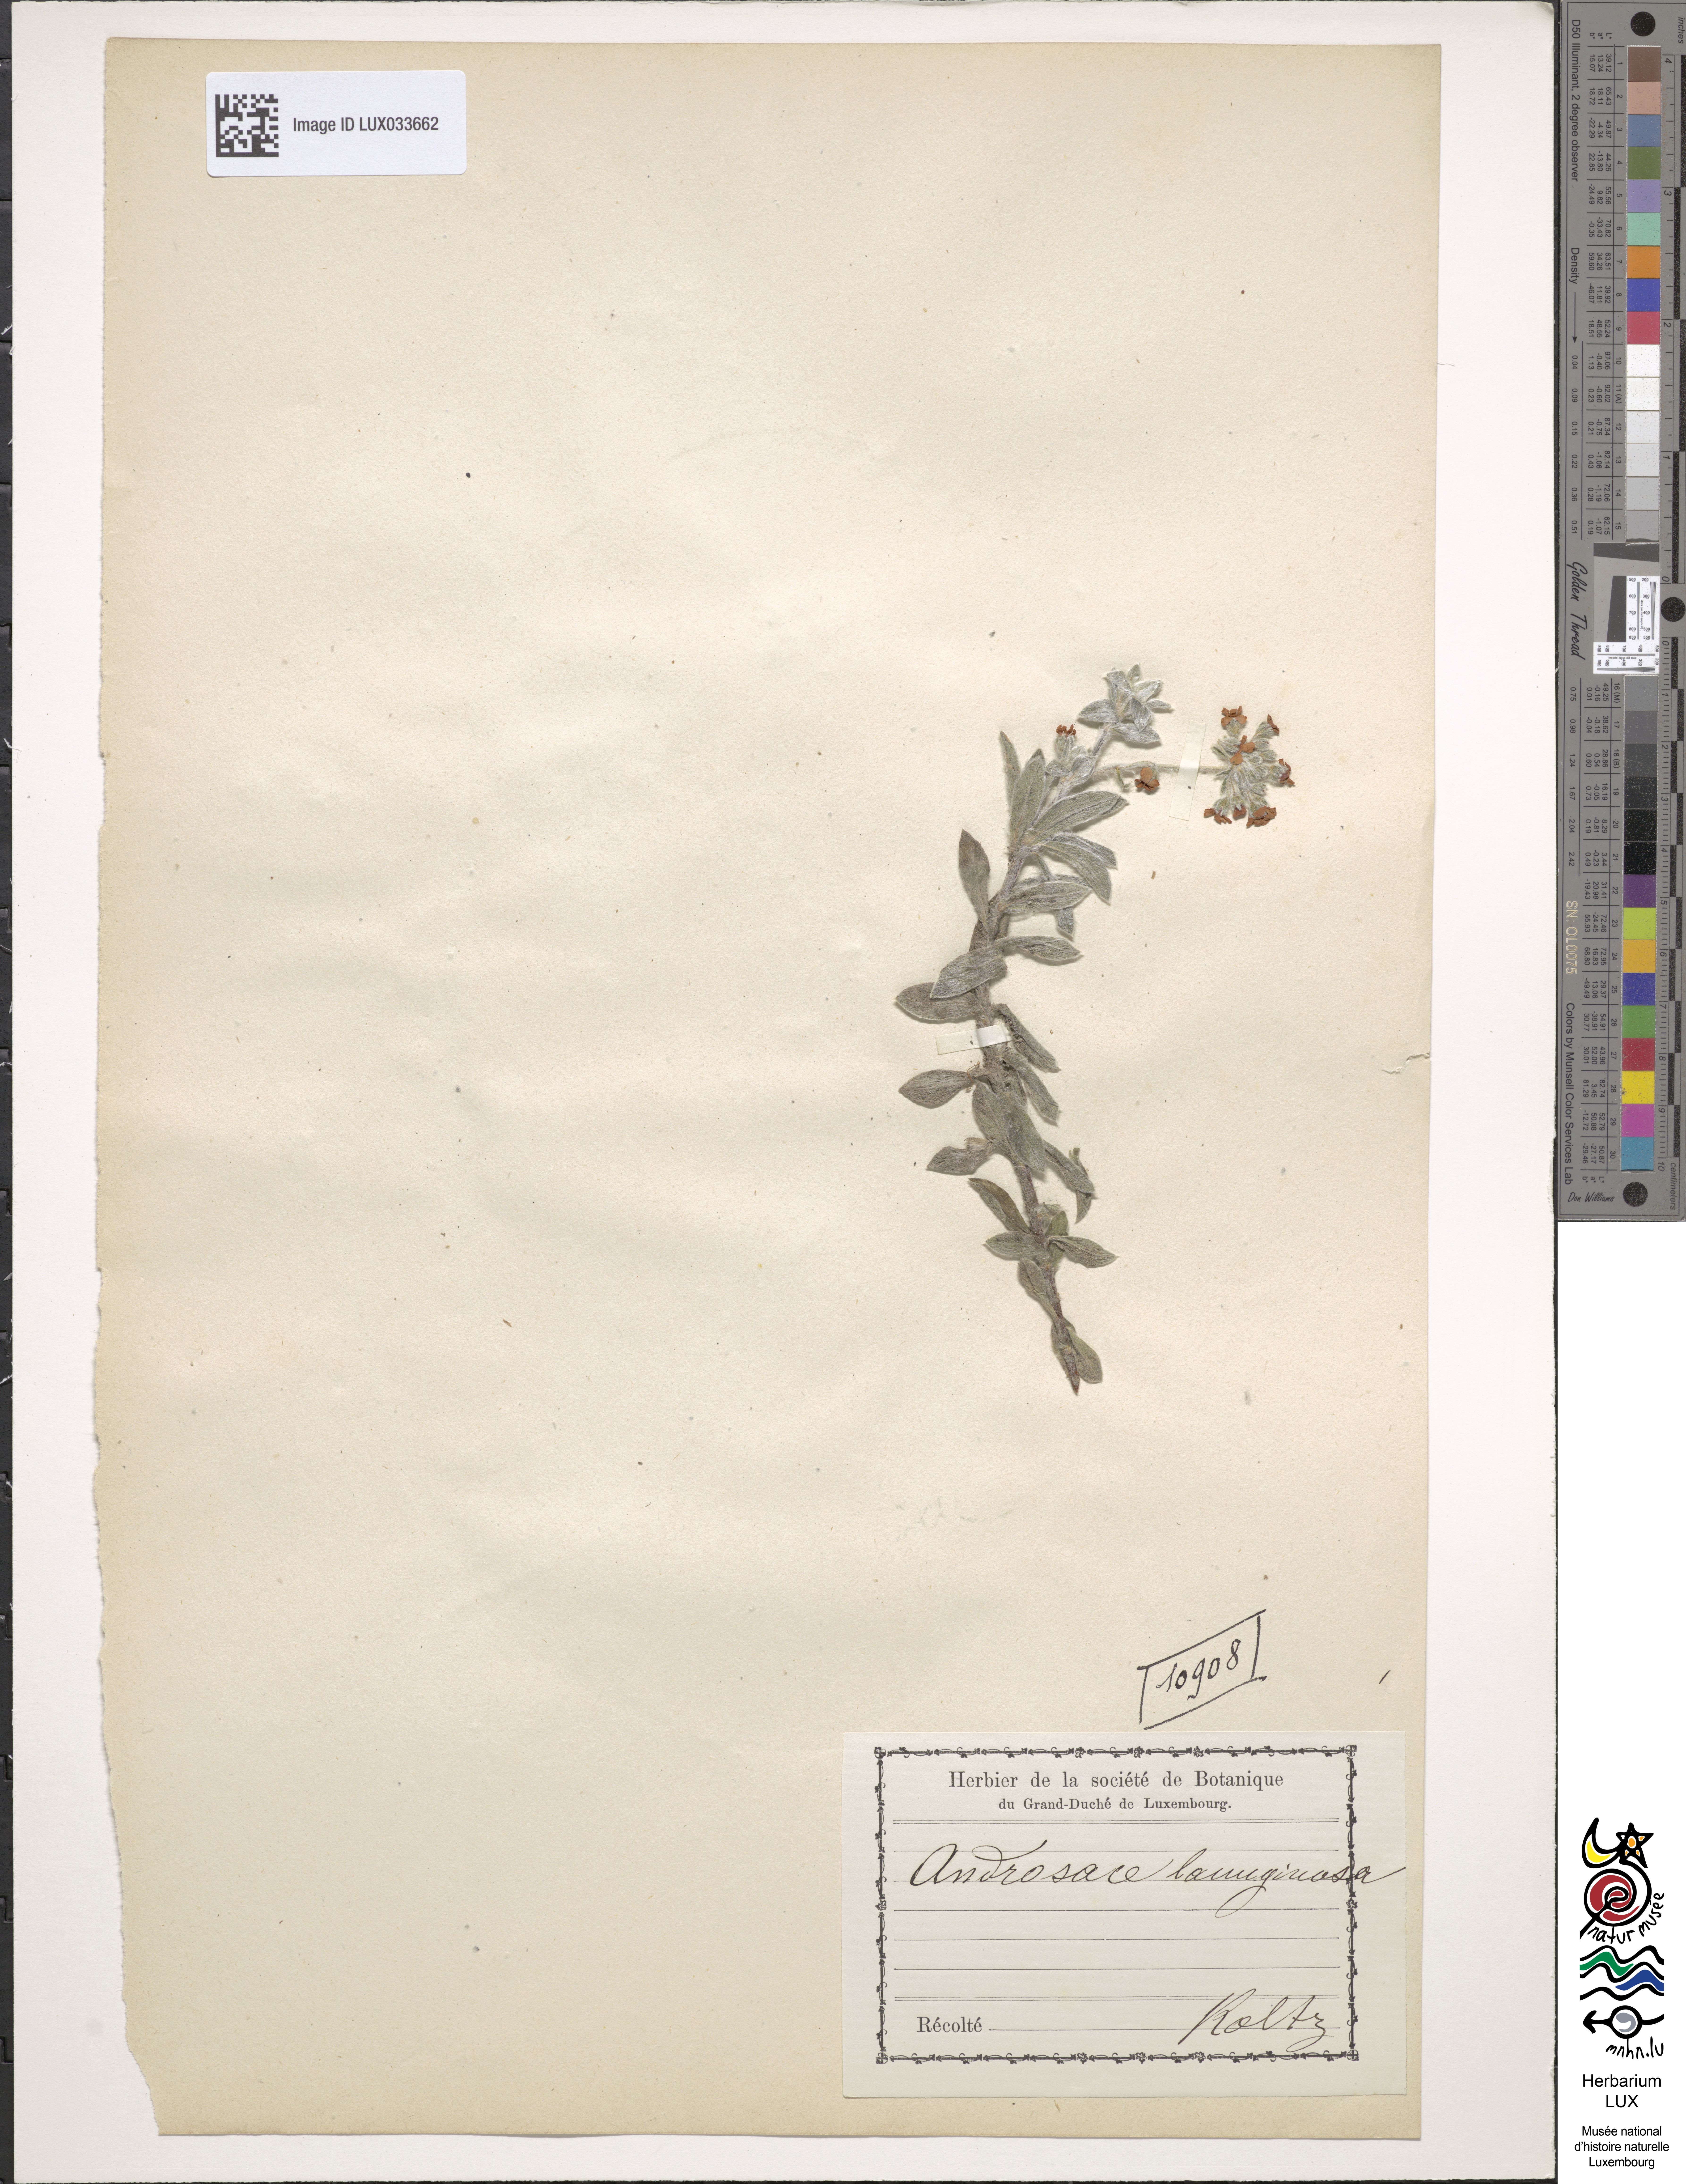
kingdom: Plantae
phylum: Tracheophyta
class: Magnoliopsida
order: Ericales
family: Primulaceae
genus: Androsace
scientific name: Androsace lanuginosa
